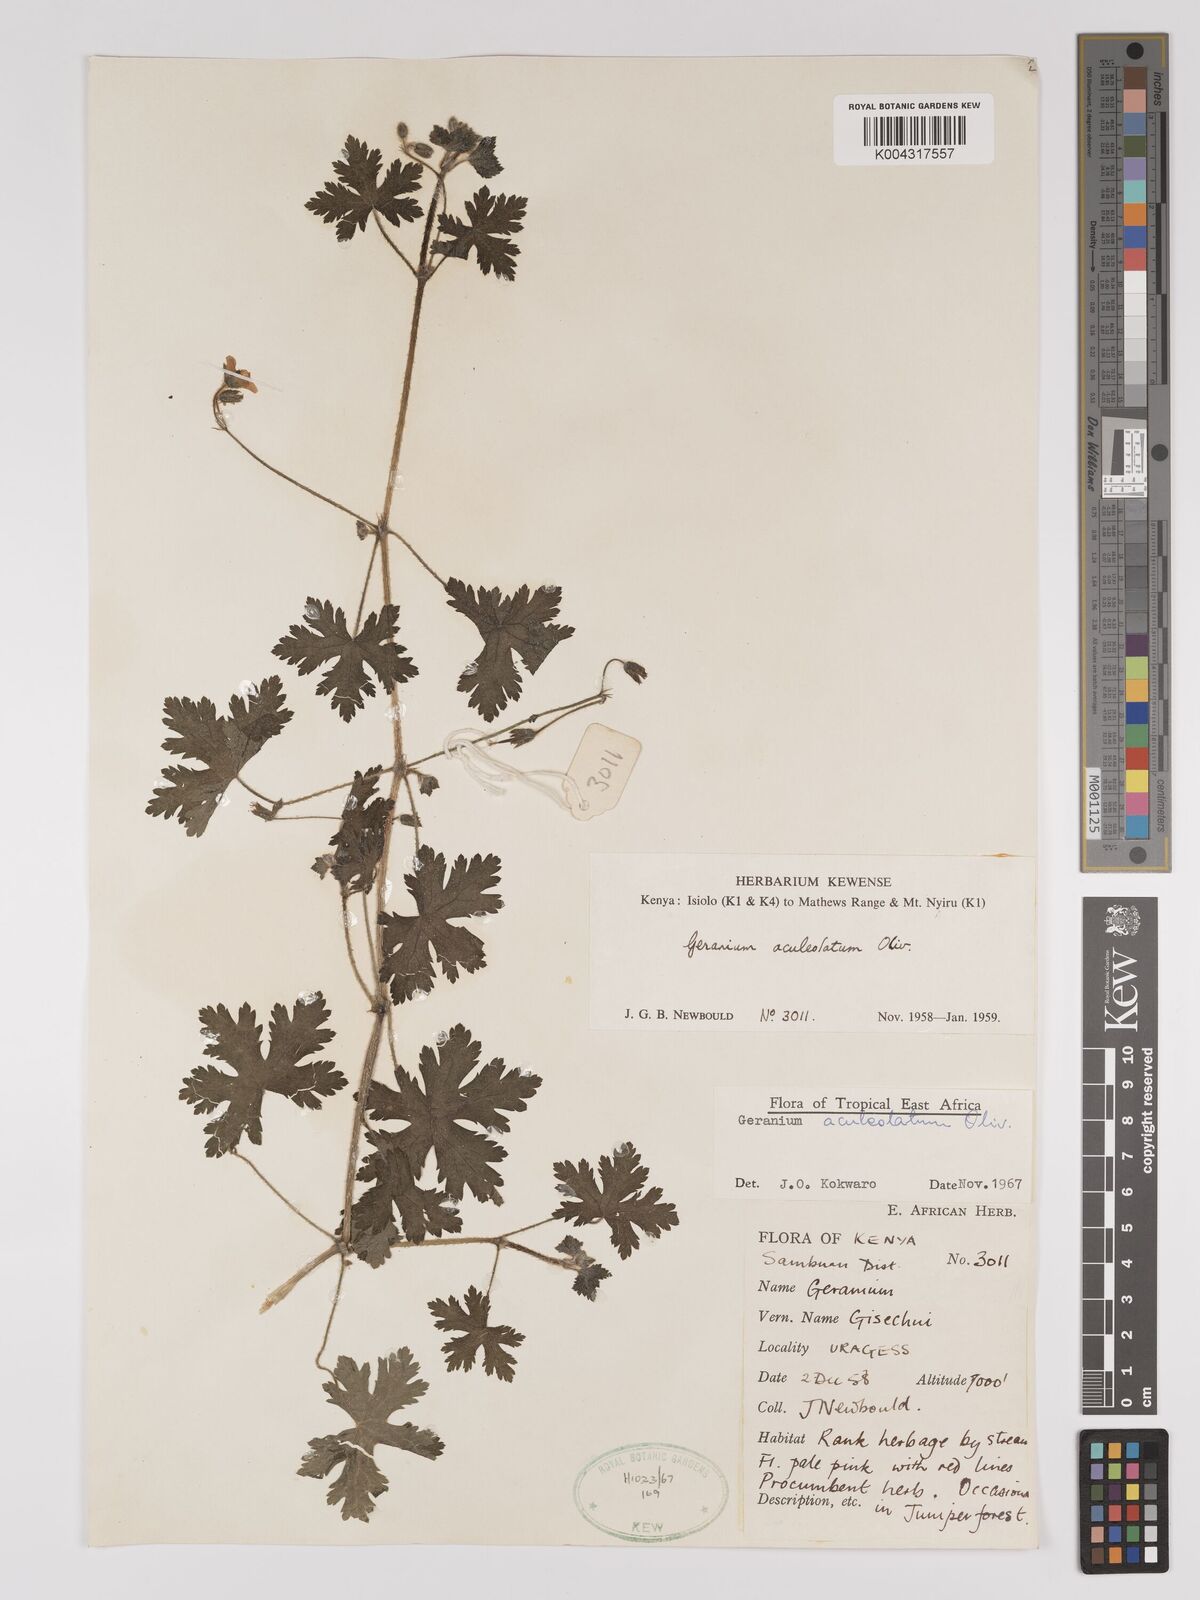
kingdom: Plantae
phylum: Tracheophyta
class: Magnoliopsida
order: Geraniales
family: Geraniaceae
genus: Geranium
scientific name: Geranium aculeolatum
